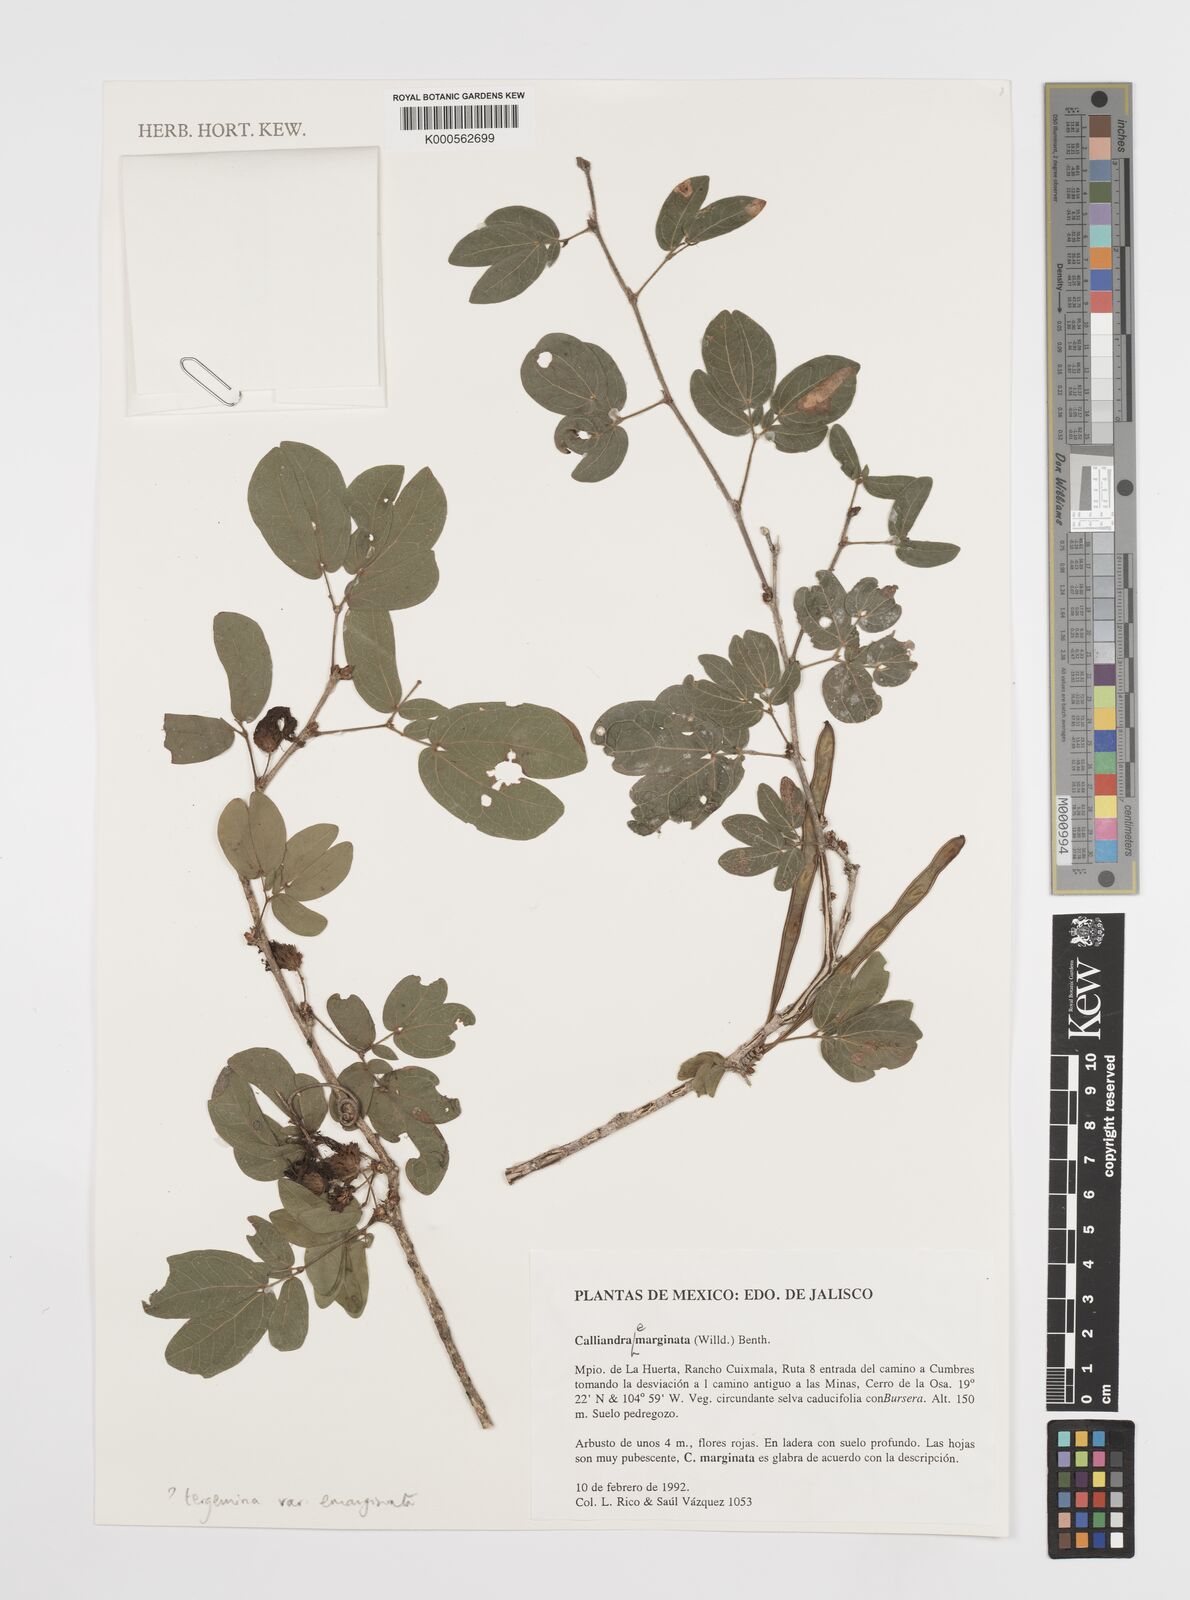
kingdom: Plantae
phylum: Tracheophyta
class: Magnoliopsida
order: Fabales
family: Fabaceae
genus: Calliandra
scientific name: Calliandra tergemina
